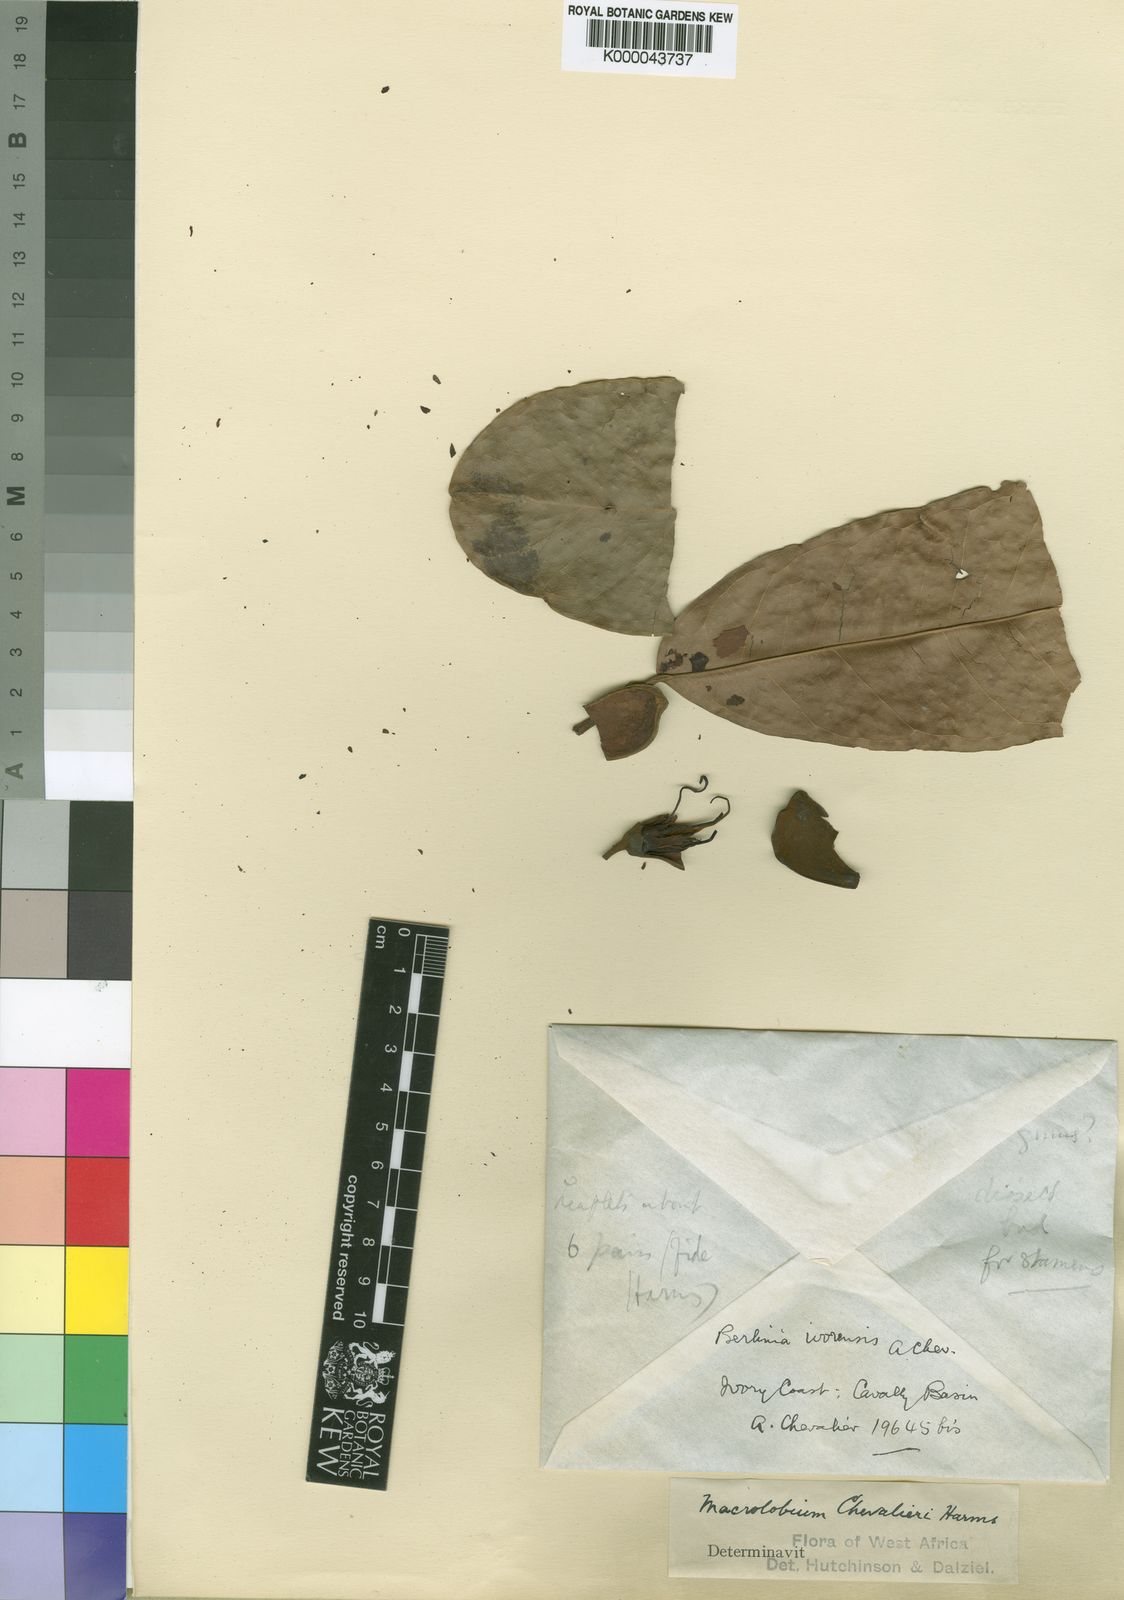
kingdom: Plantae
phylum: Tracheophyta
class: Magnoliopsida
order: Fabales
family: Fabaceae
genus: Gilbertiodendron
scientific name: Gilbertiodendron
